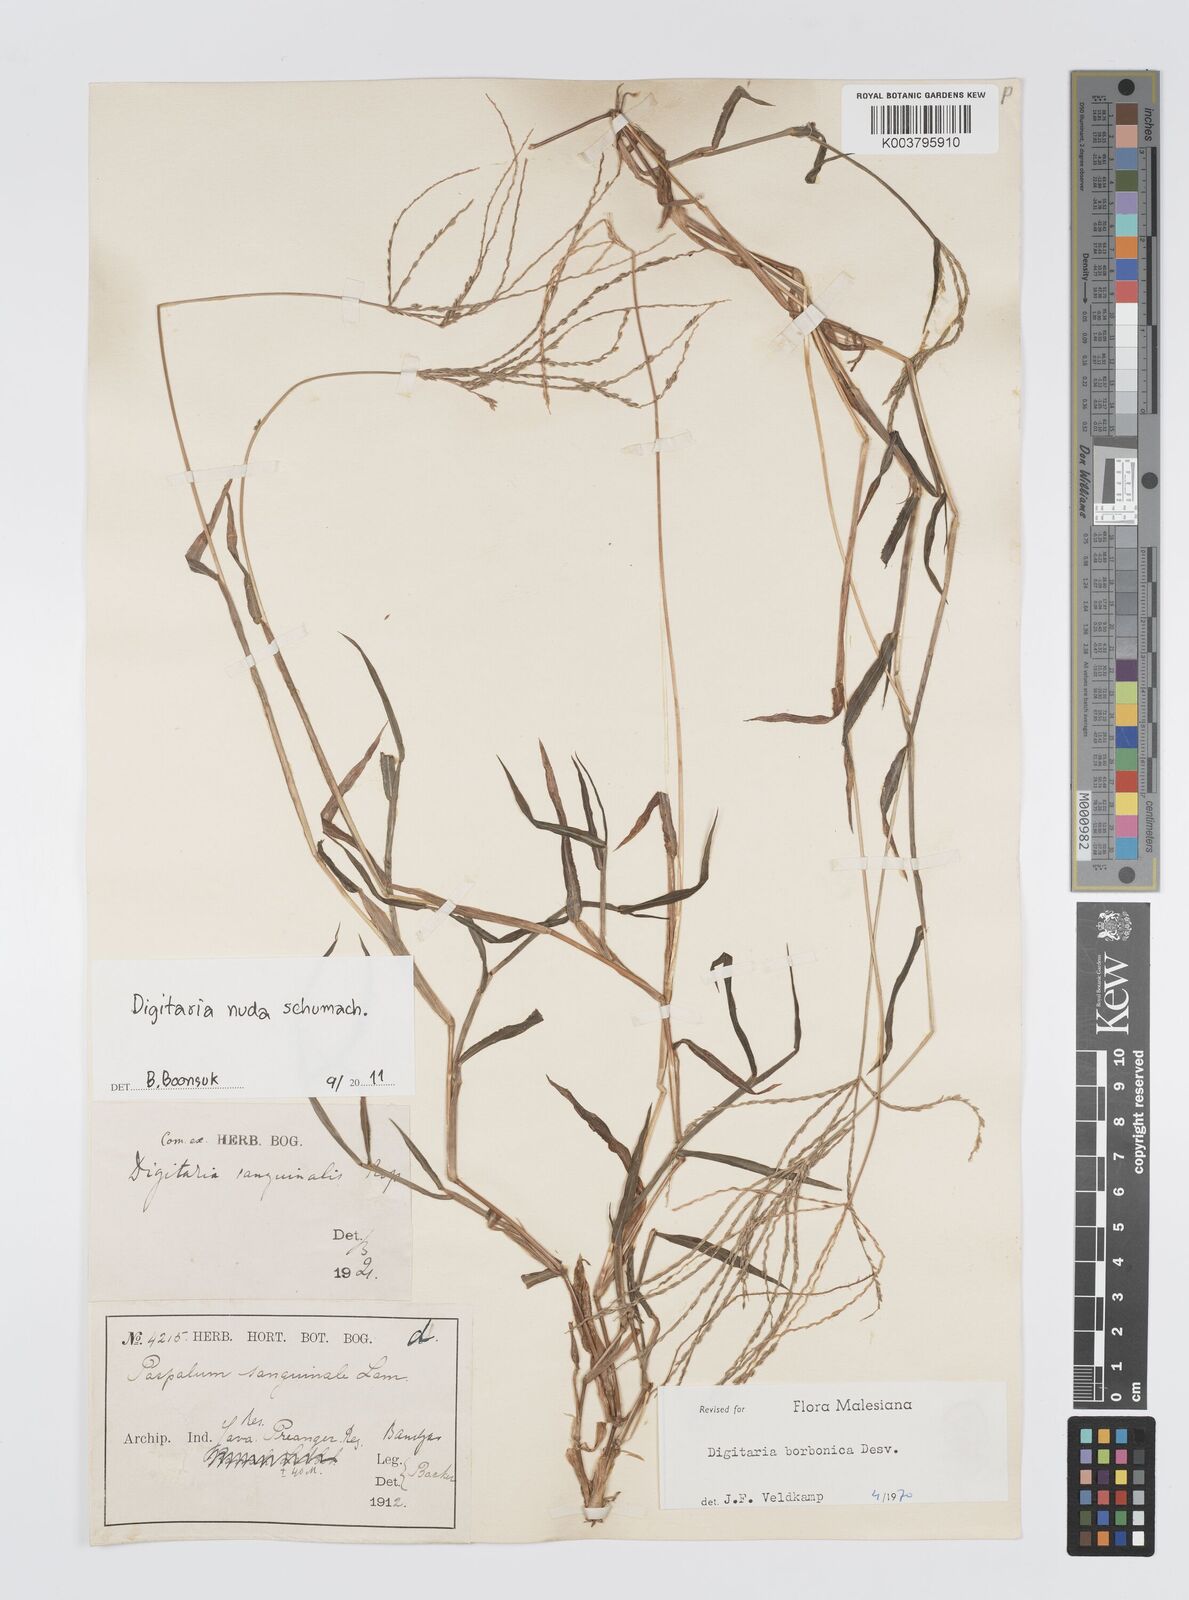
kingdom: Plantae
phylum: Tracheophyta
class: Liliopsida
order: Poales
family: Poaceae
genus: Digitaria
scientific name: Digitaria nuda
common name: Naked crabgrass
